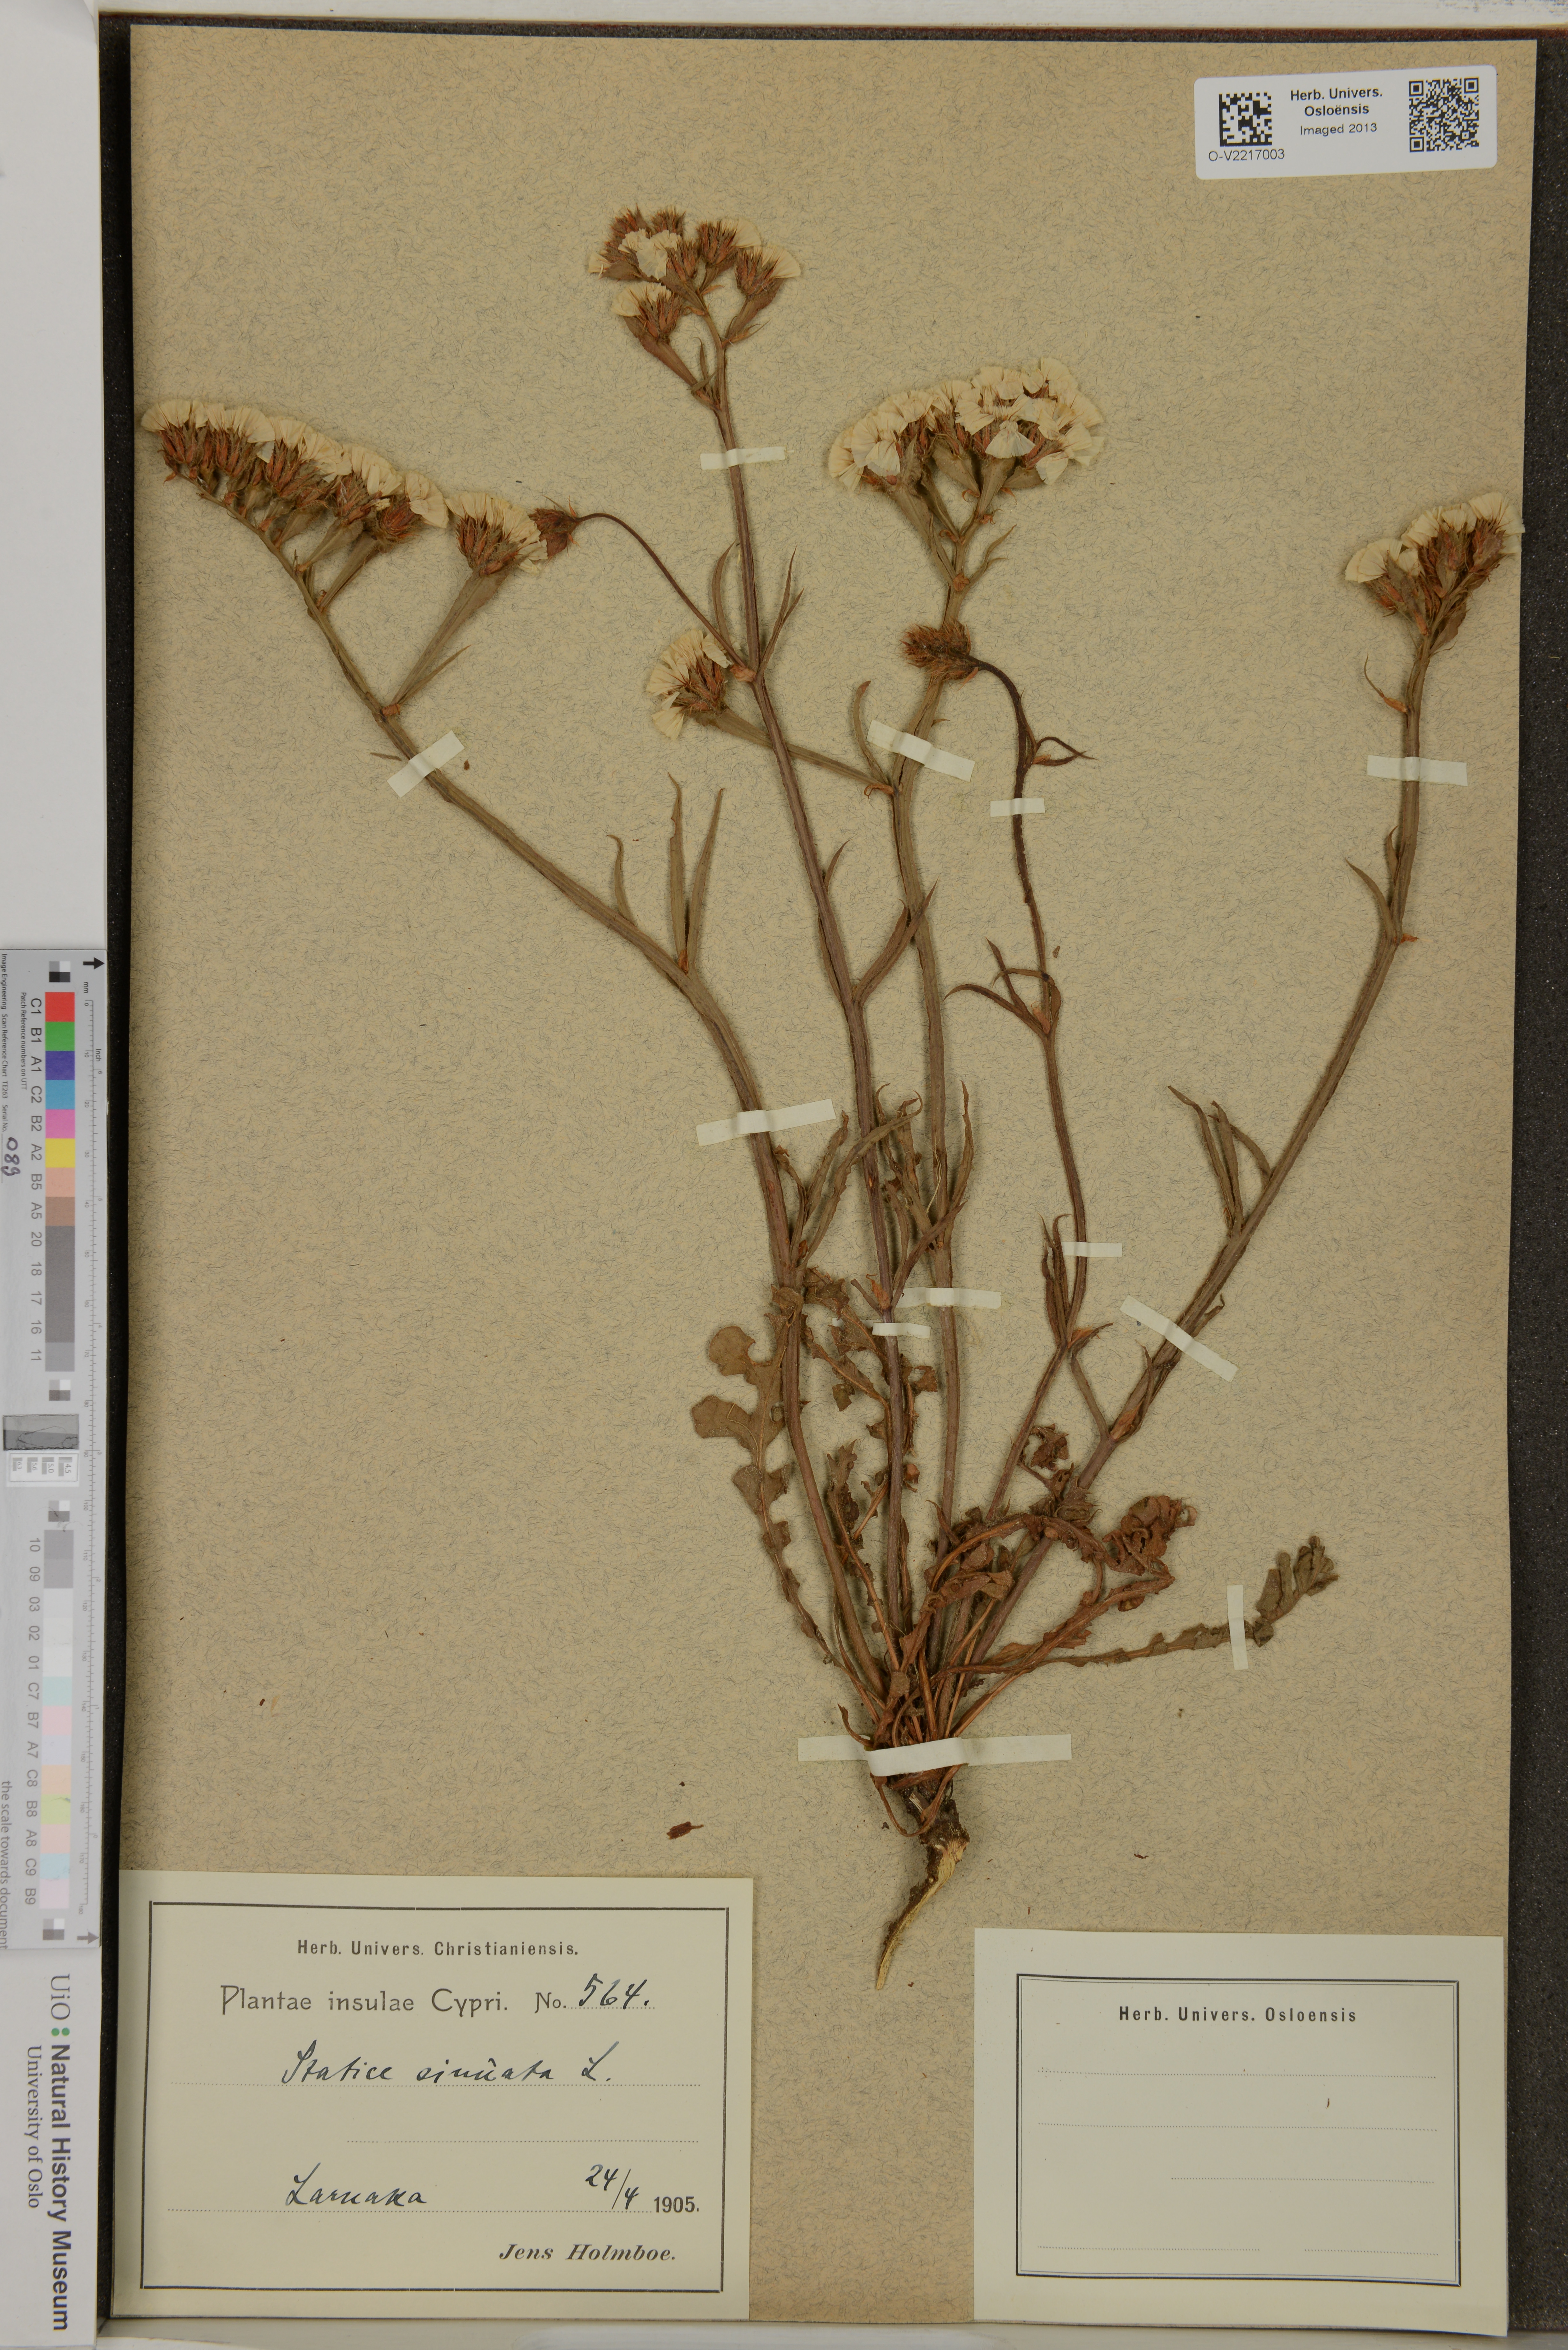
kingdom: Plantae
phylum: Tracheophyta
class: Magnoliopsida
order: Caryophyllales
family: Plumbaginaceae
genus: Limonium
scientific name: Limonium sinuatum
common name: Statice
